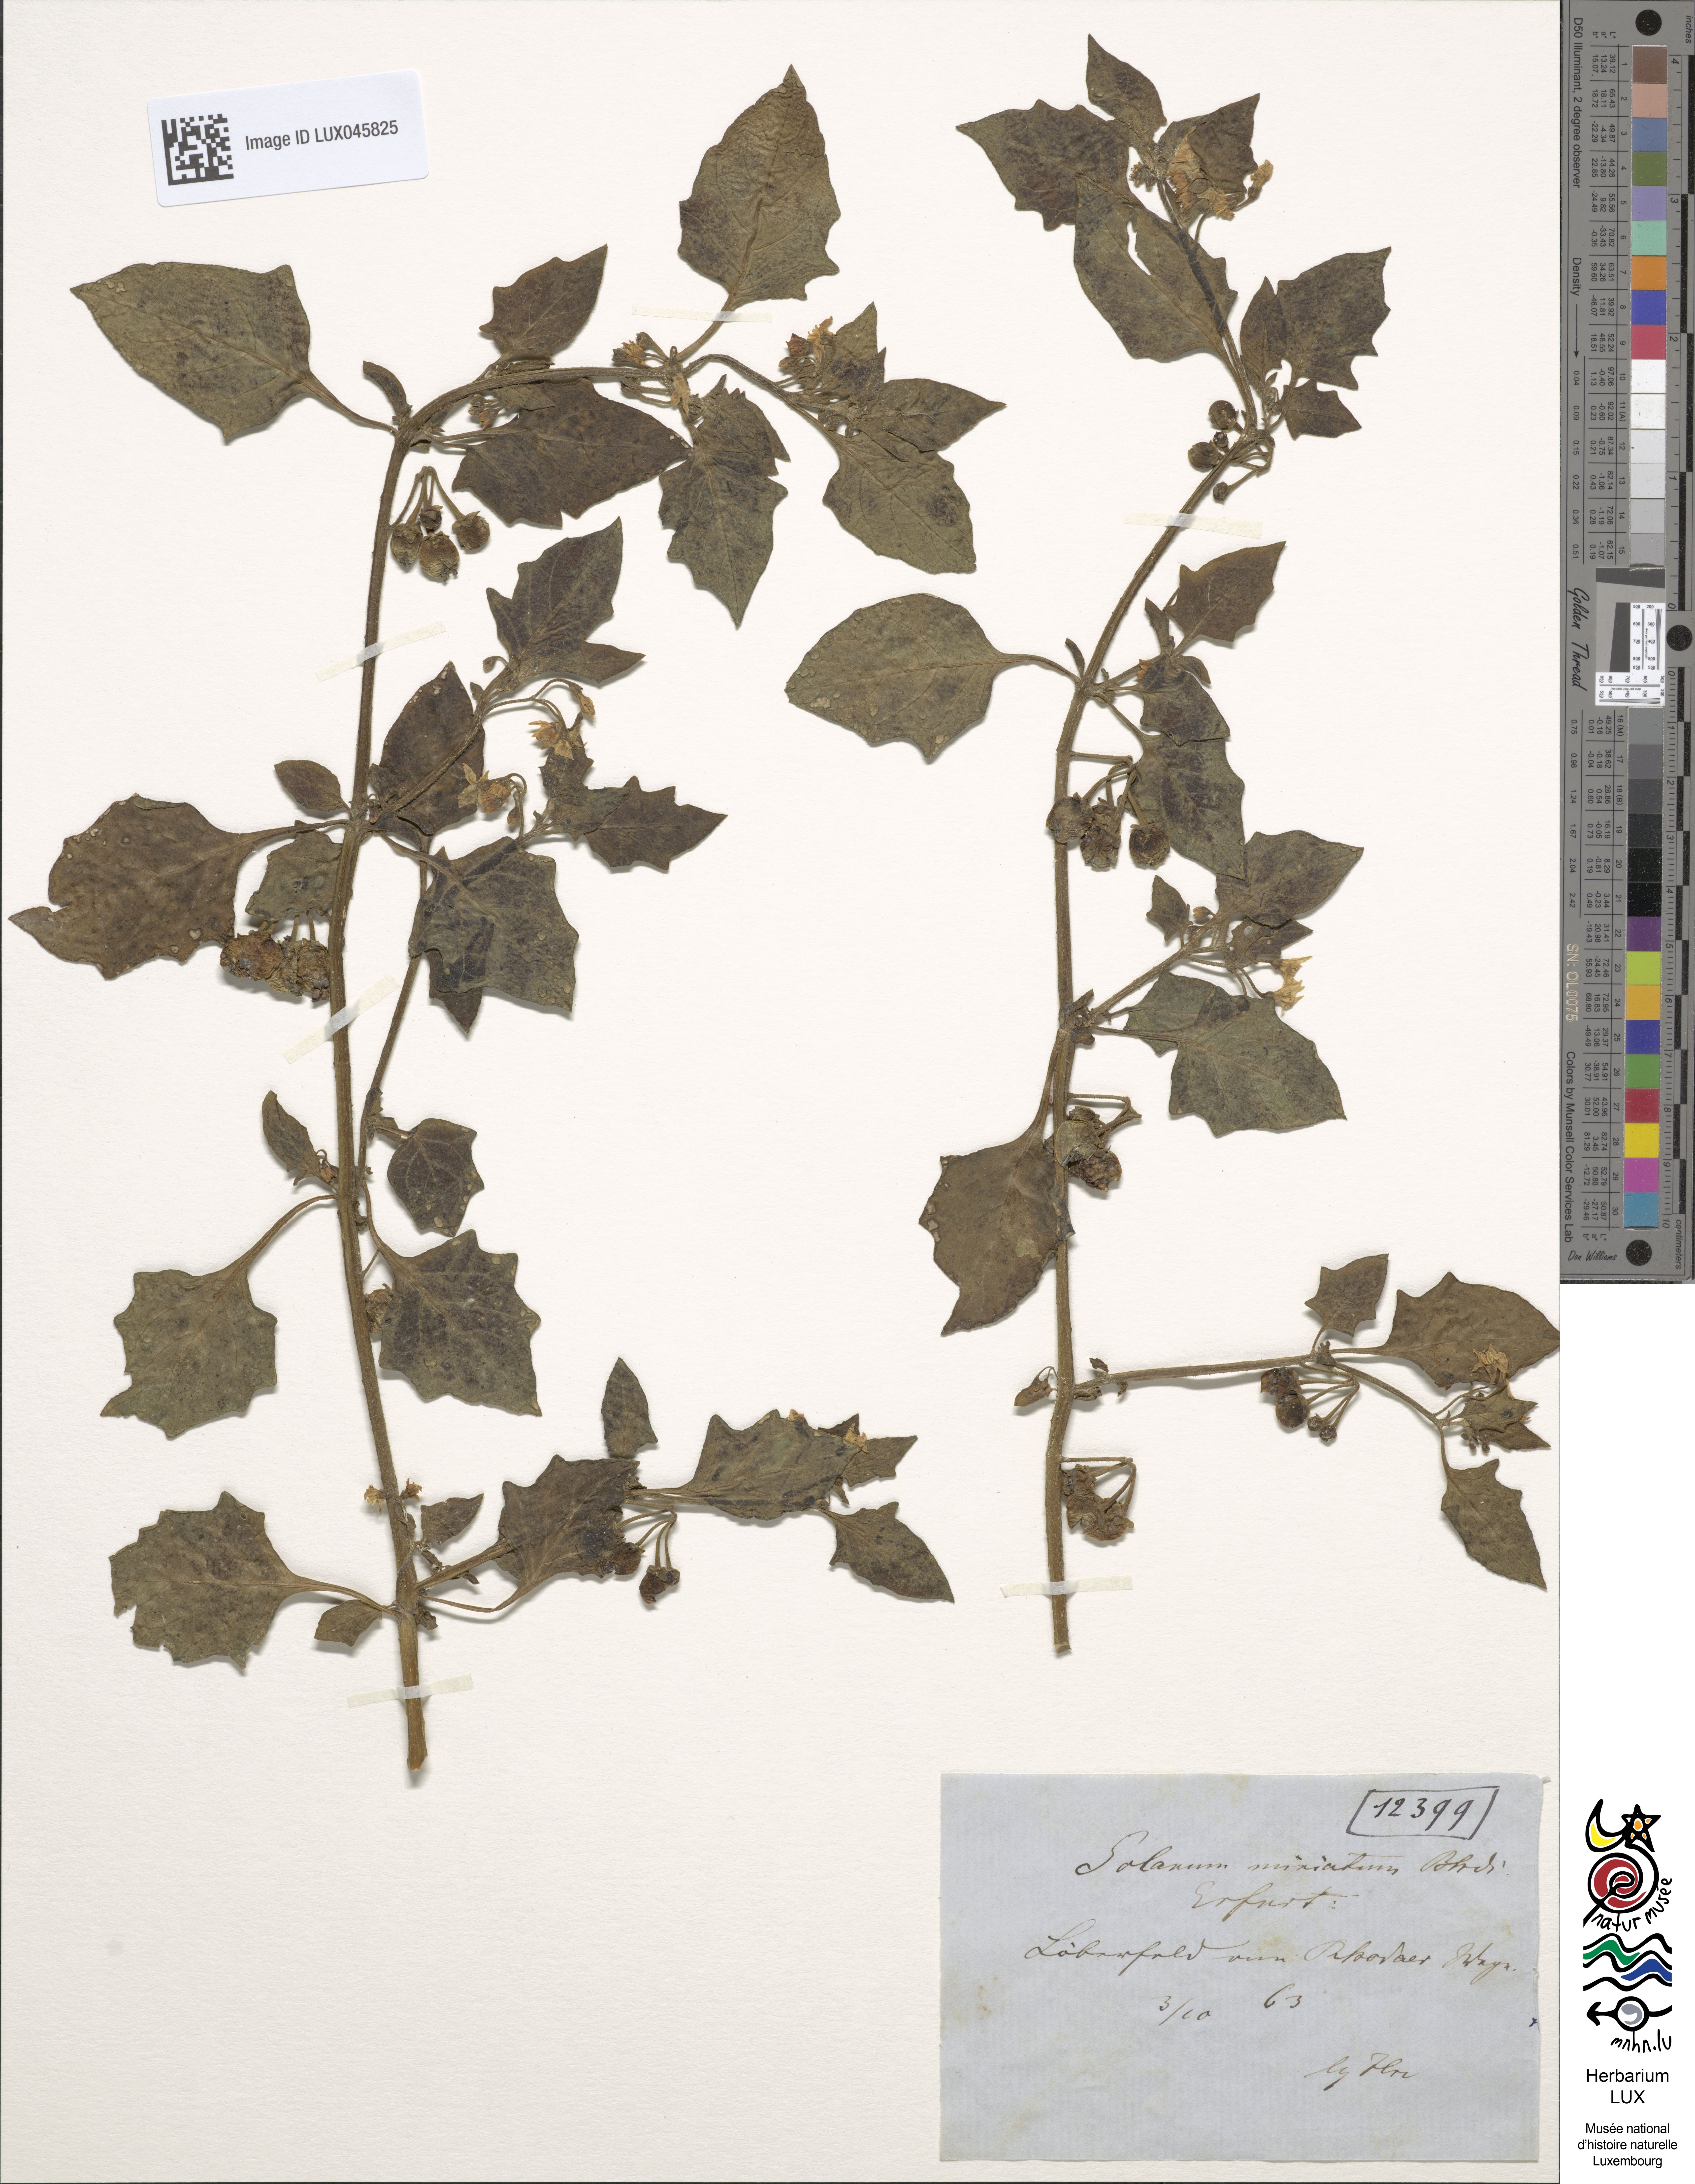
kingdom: Plantae
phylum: Tracheophyta
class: Magnoliopsida
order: Solanales
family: Solanaceae
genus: Solanum
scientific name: Solanum alatum
